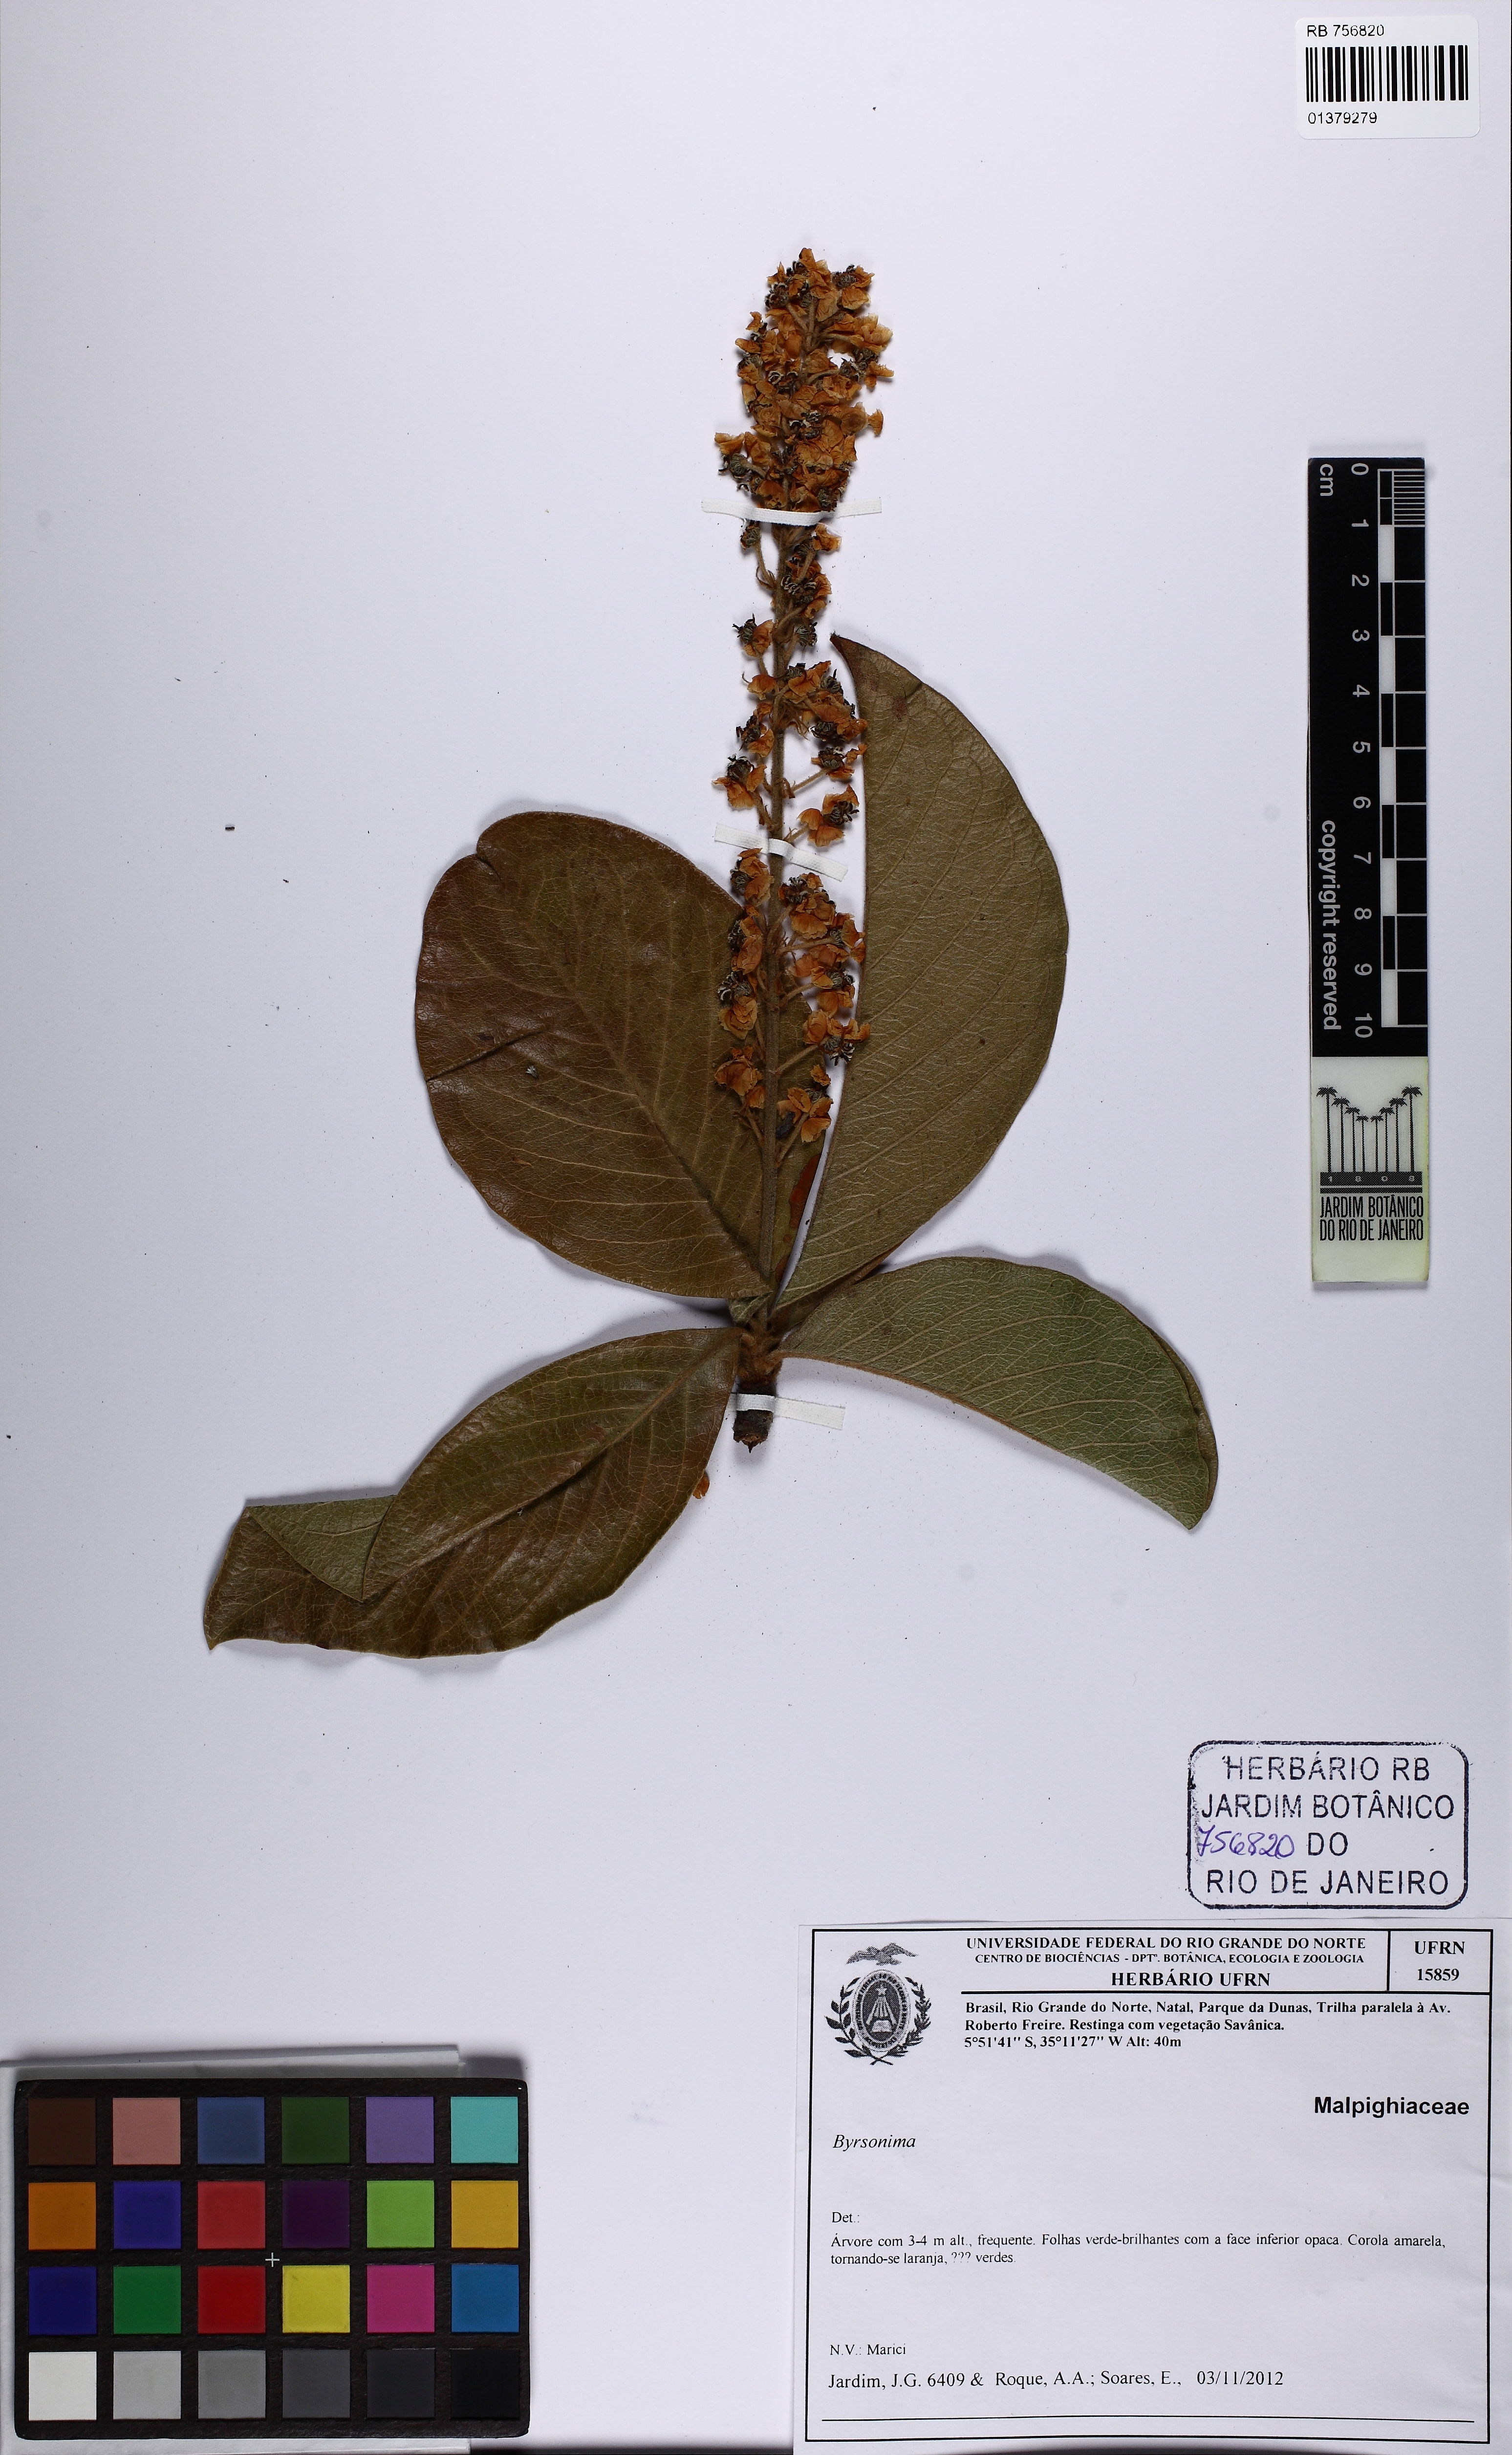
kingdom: Plantae
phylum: Tracheophyta
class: Magnoliopsida
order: Malpighiales
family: Malpighiaceae
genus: Byrsonima
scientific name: Byrsonima
